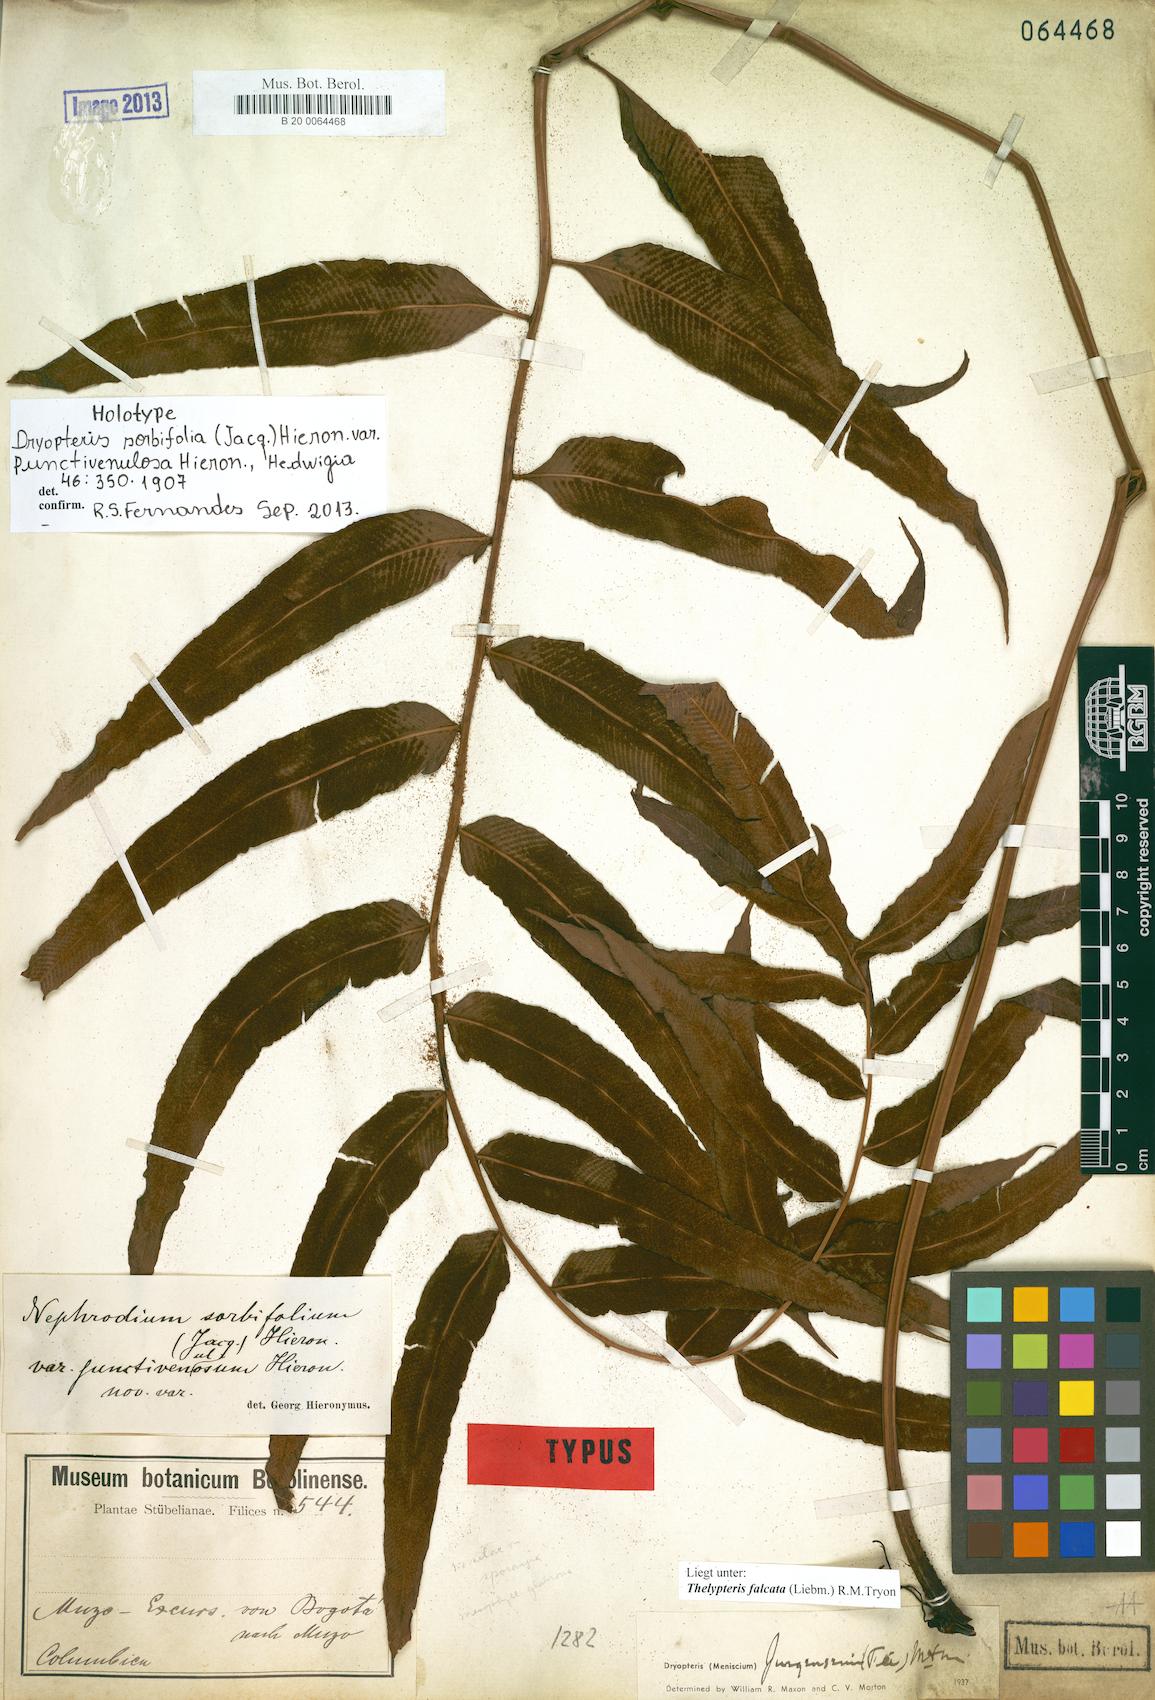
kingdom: Plantae
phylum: Tracheophyta
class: Polypodiopsida
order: Polypodiales
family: Thelypteridaceae
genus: Meniscium
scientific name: Meniscium falcatum
